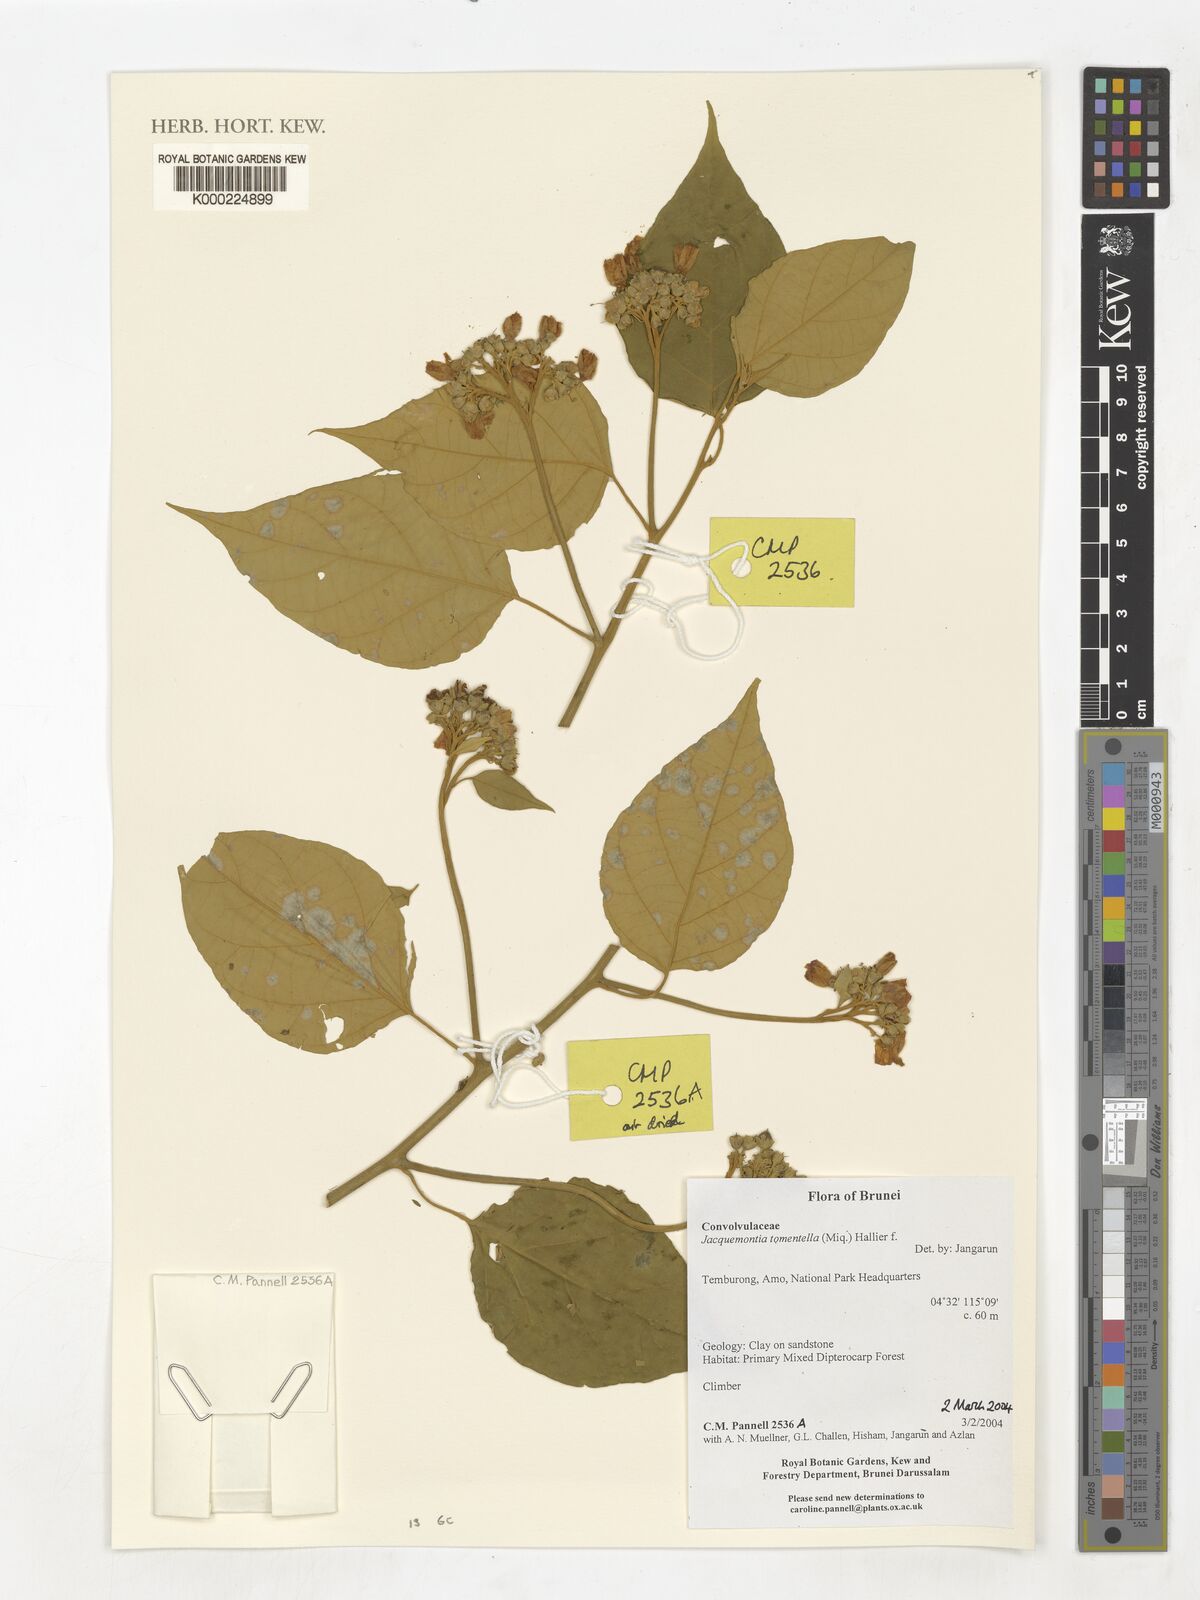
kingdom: Plantae
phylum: Tracheophyta
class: Magnoliopsida
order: Solanales
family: Convolvulaceae
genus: Jacquemontia
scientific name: Jacquemontia
